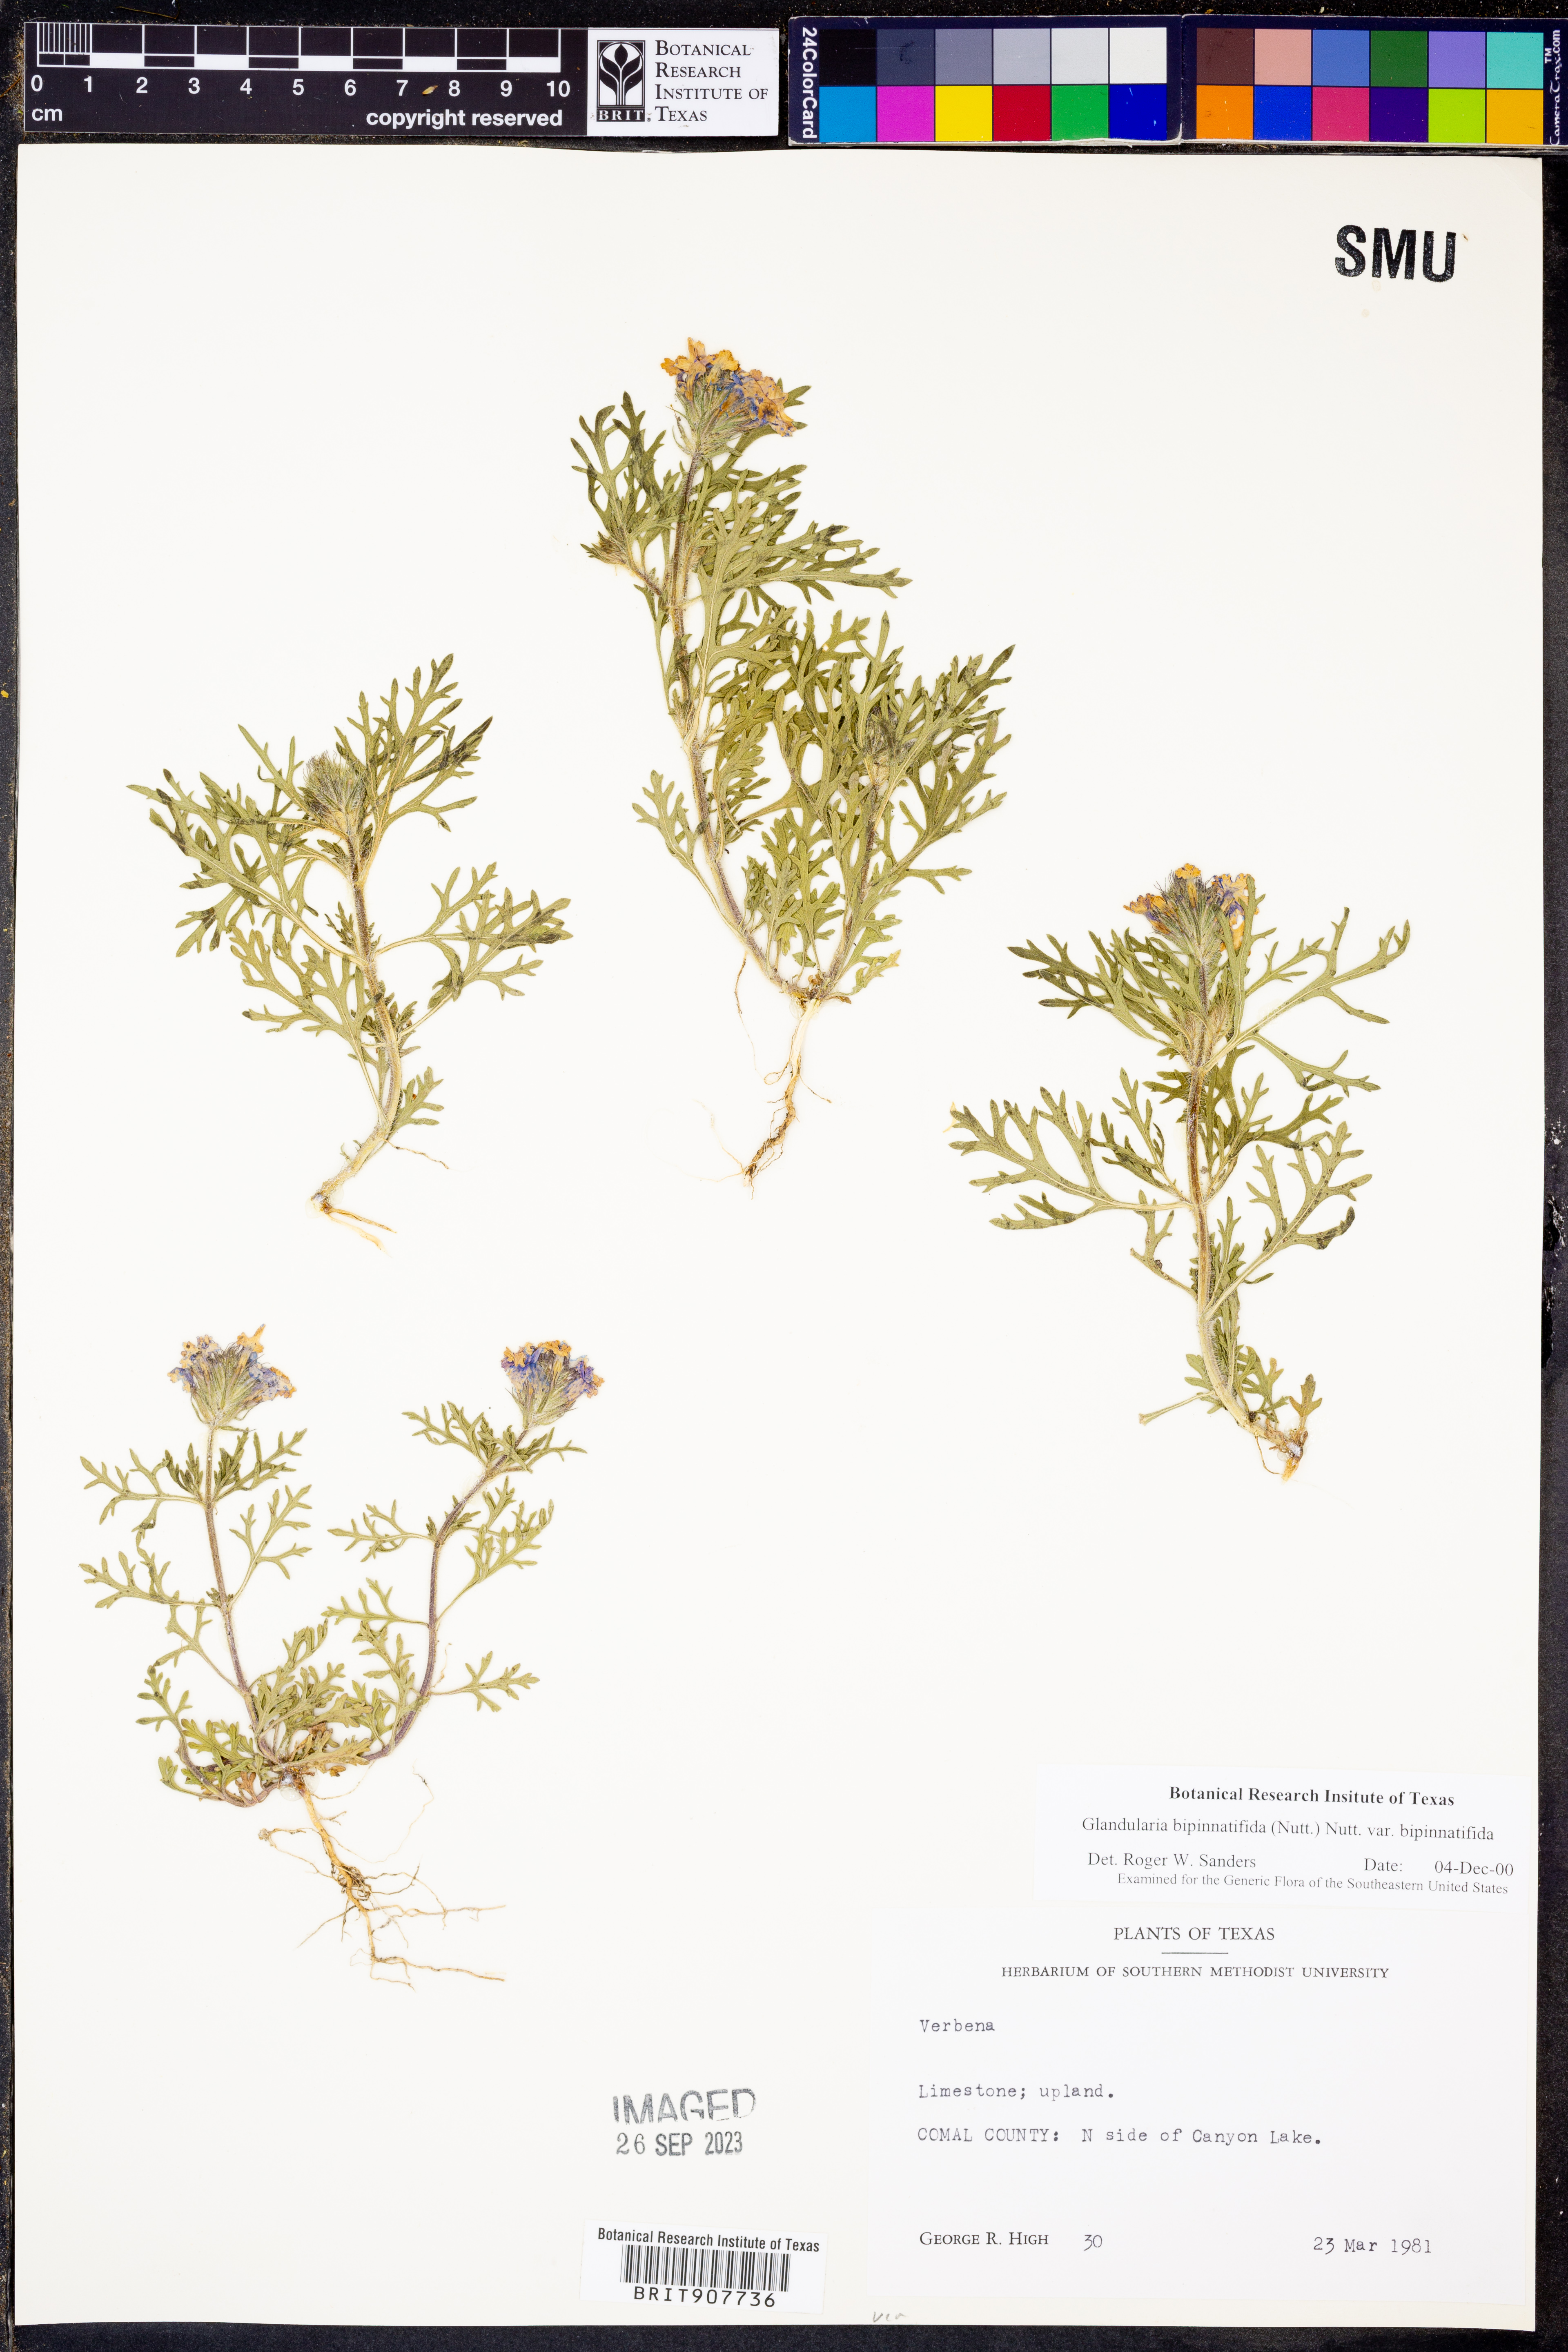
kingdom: Plantae
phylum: Tracheophyta
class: Magnoliopsida
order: Lamiales
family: Verbenaceae
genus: Verbena
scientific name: Verbena bipinnatifida
